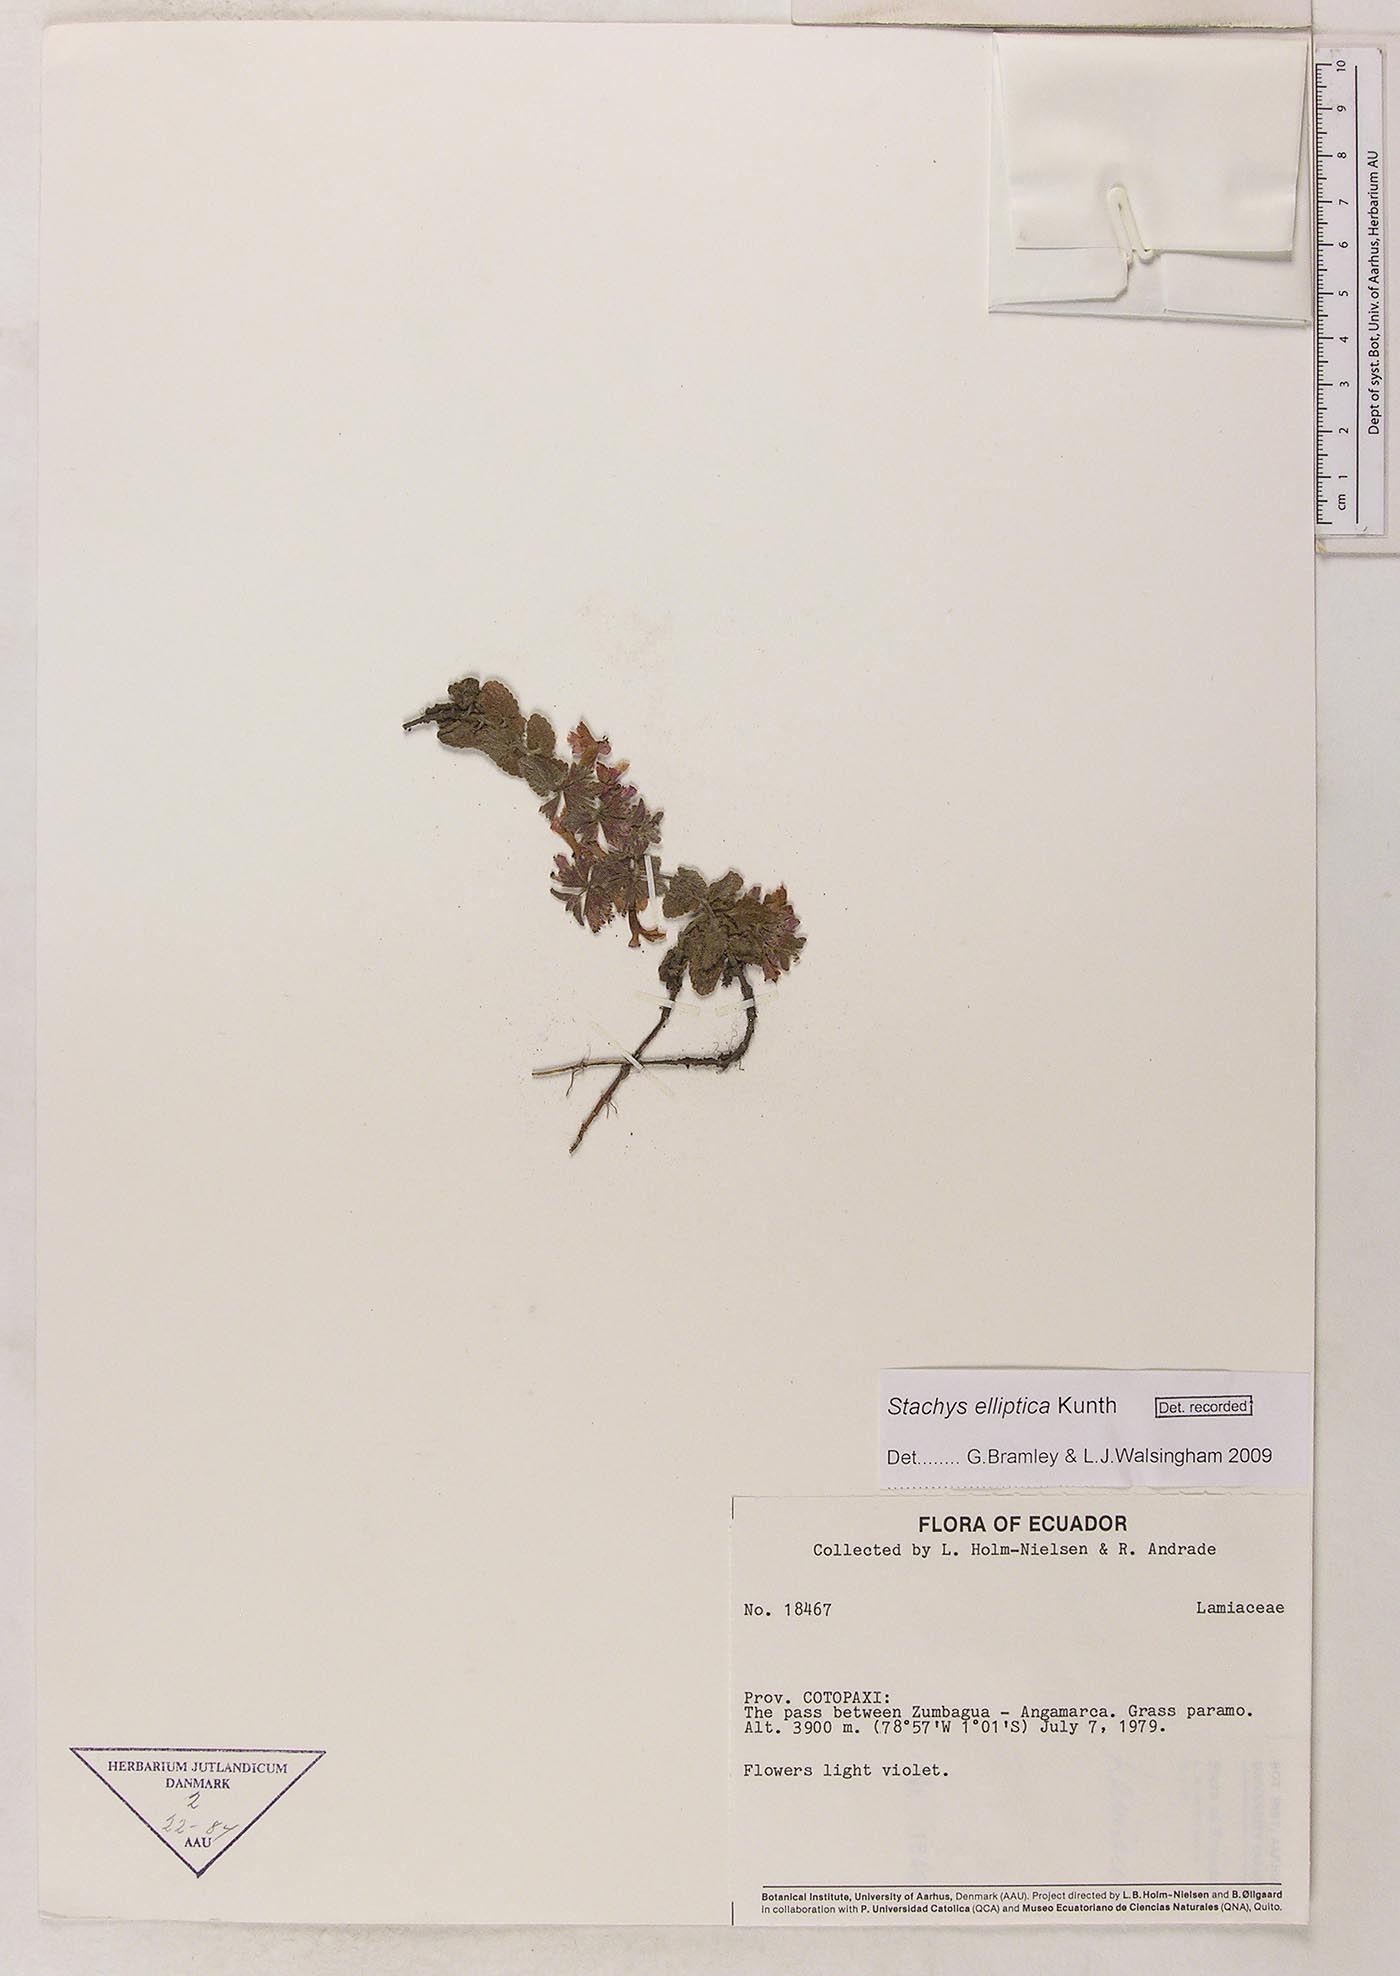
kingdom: Plantae
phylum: Tracheophyta
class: Magnoliopsida
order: Lamiales
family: Lamiaceae
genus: Stachys
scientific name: Stachys elliptica
